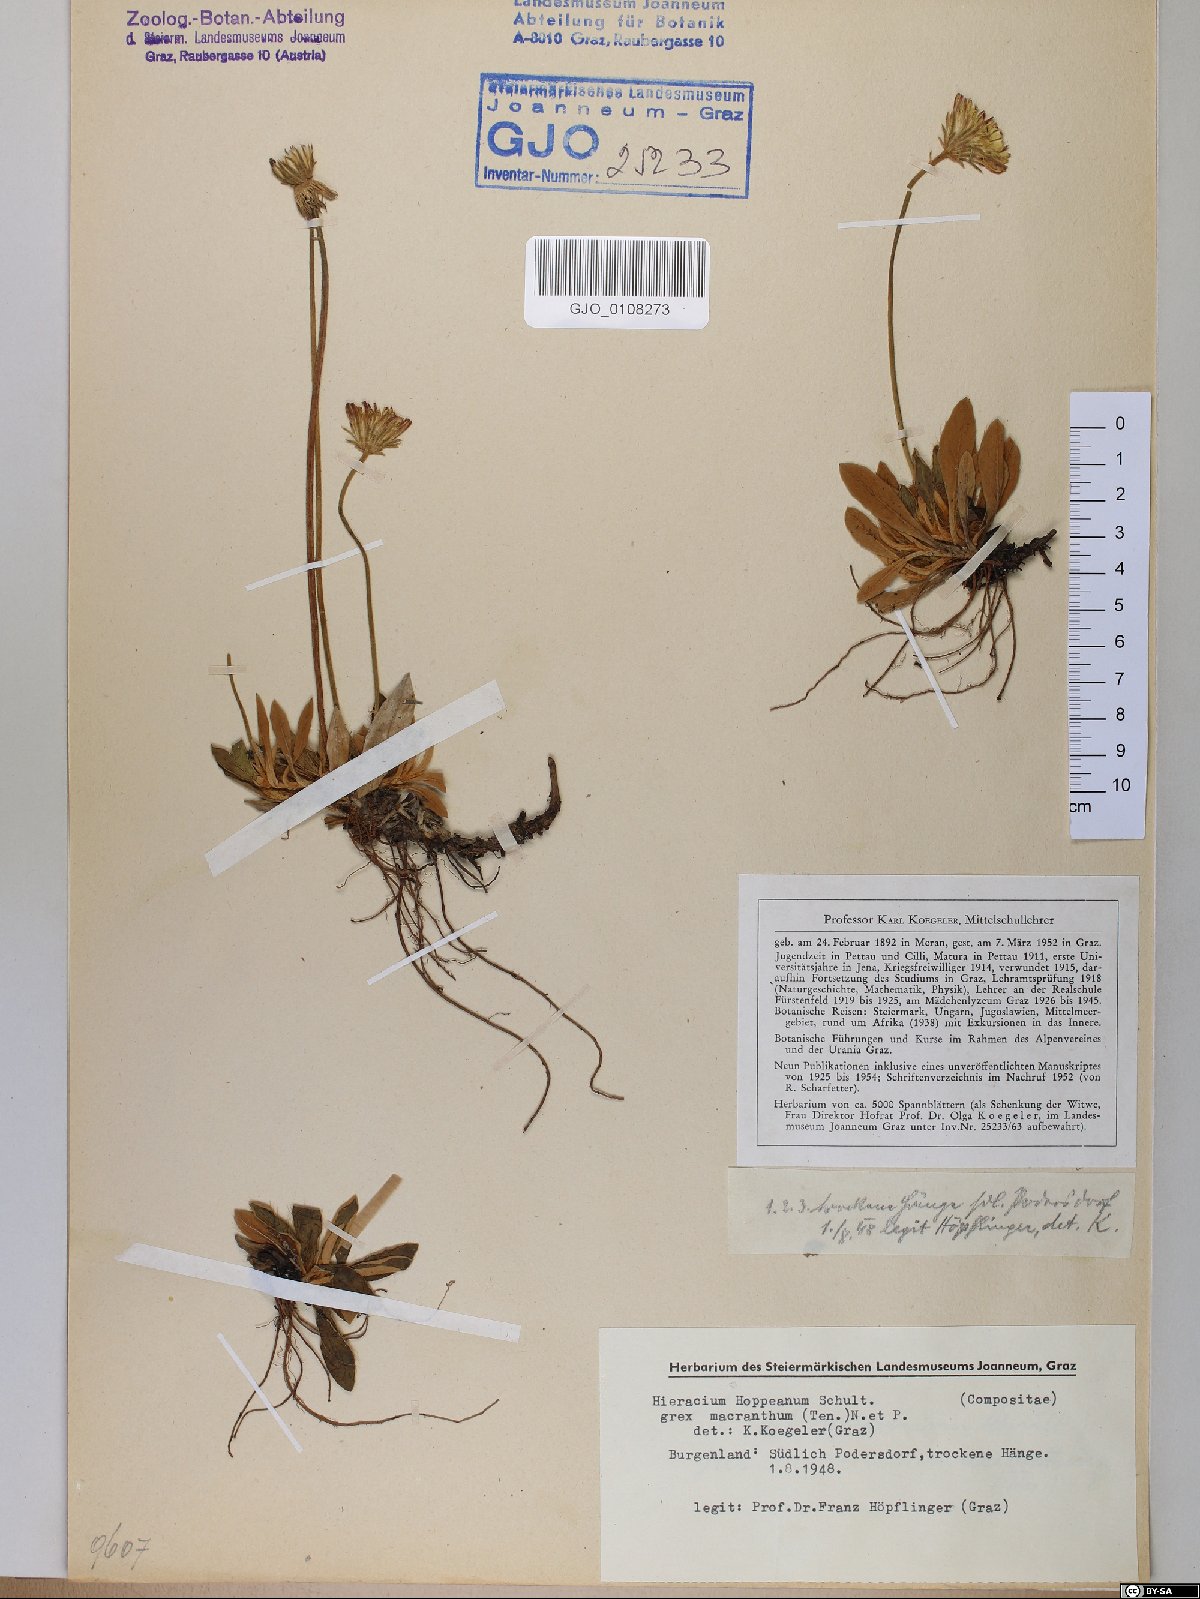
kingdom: Plantae
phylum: Tracheophyta
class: Magnoliopsida
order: Asterales
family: Asteraceae
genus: Pilosella
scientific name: Pilosella hoppeana
